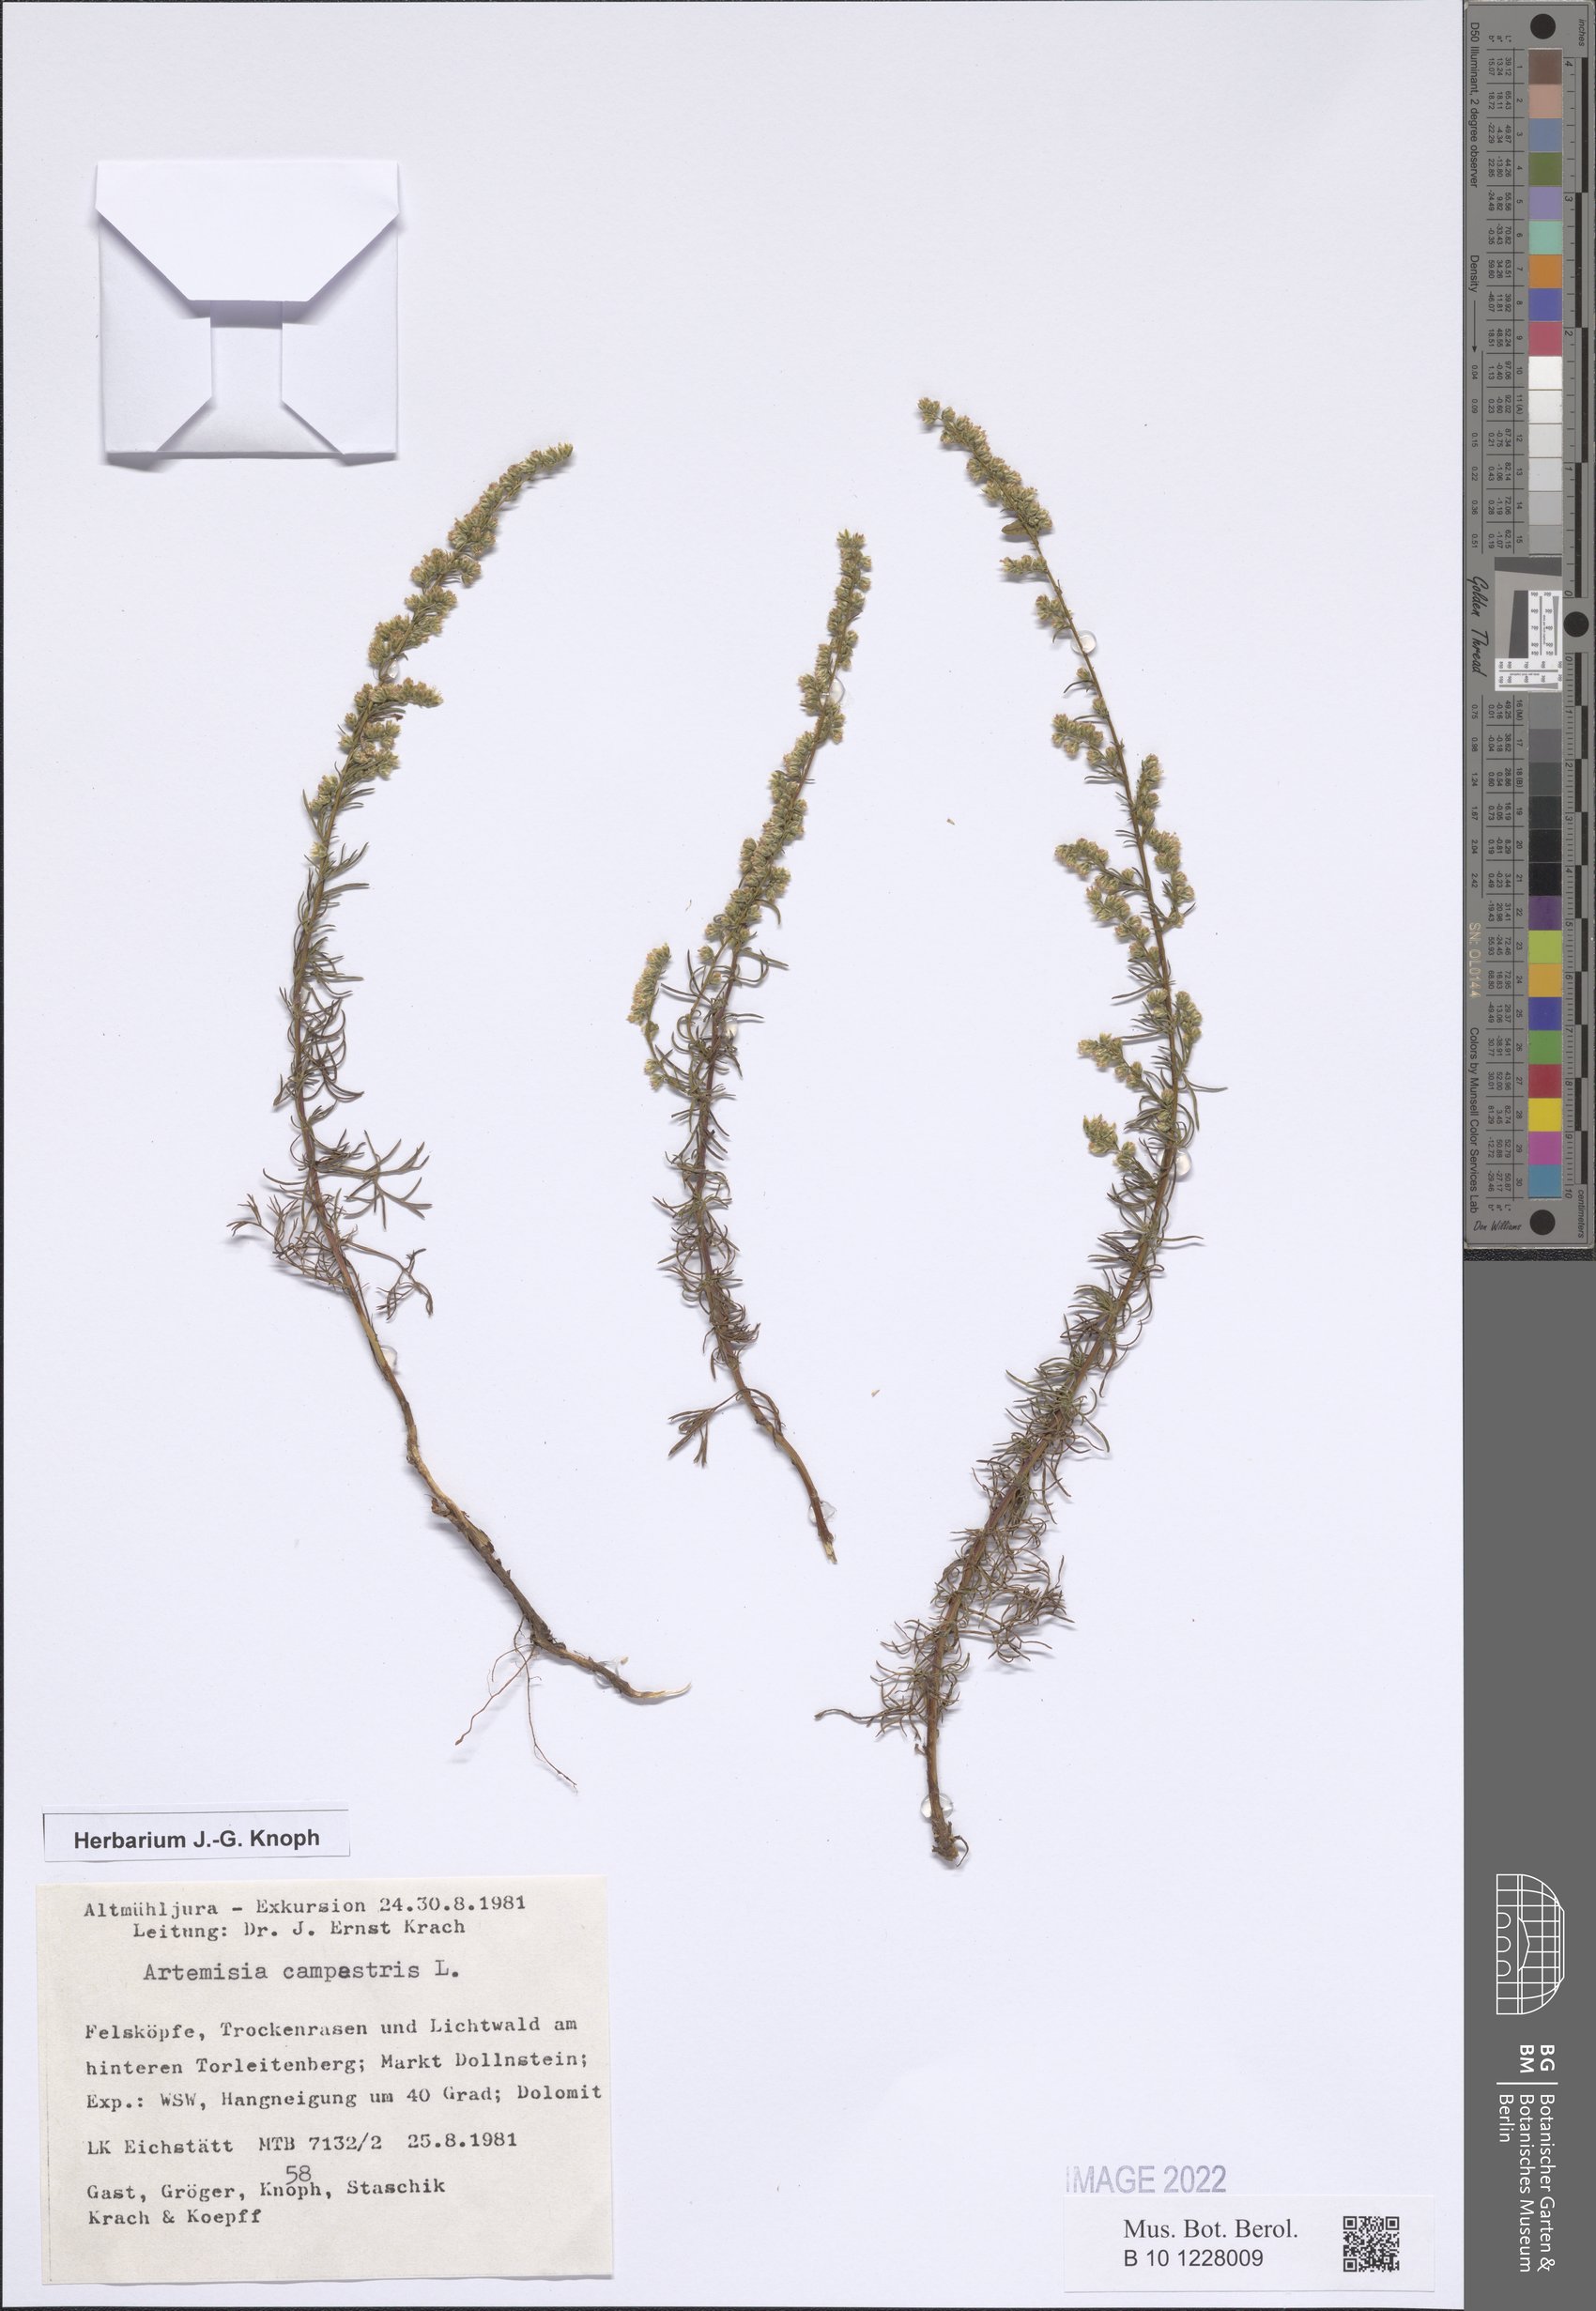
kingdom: Plantae
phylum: Tracheophyta
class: Magnoliopsida
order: Asterales
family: Asteraceae
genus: Artemisia
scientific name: Artemisia campestris
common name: Field wormwood
